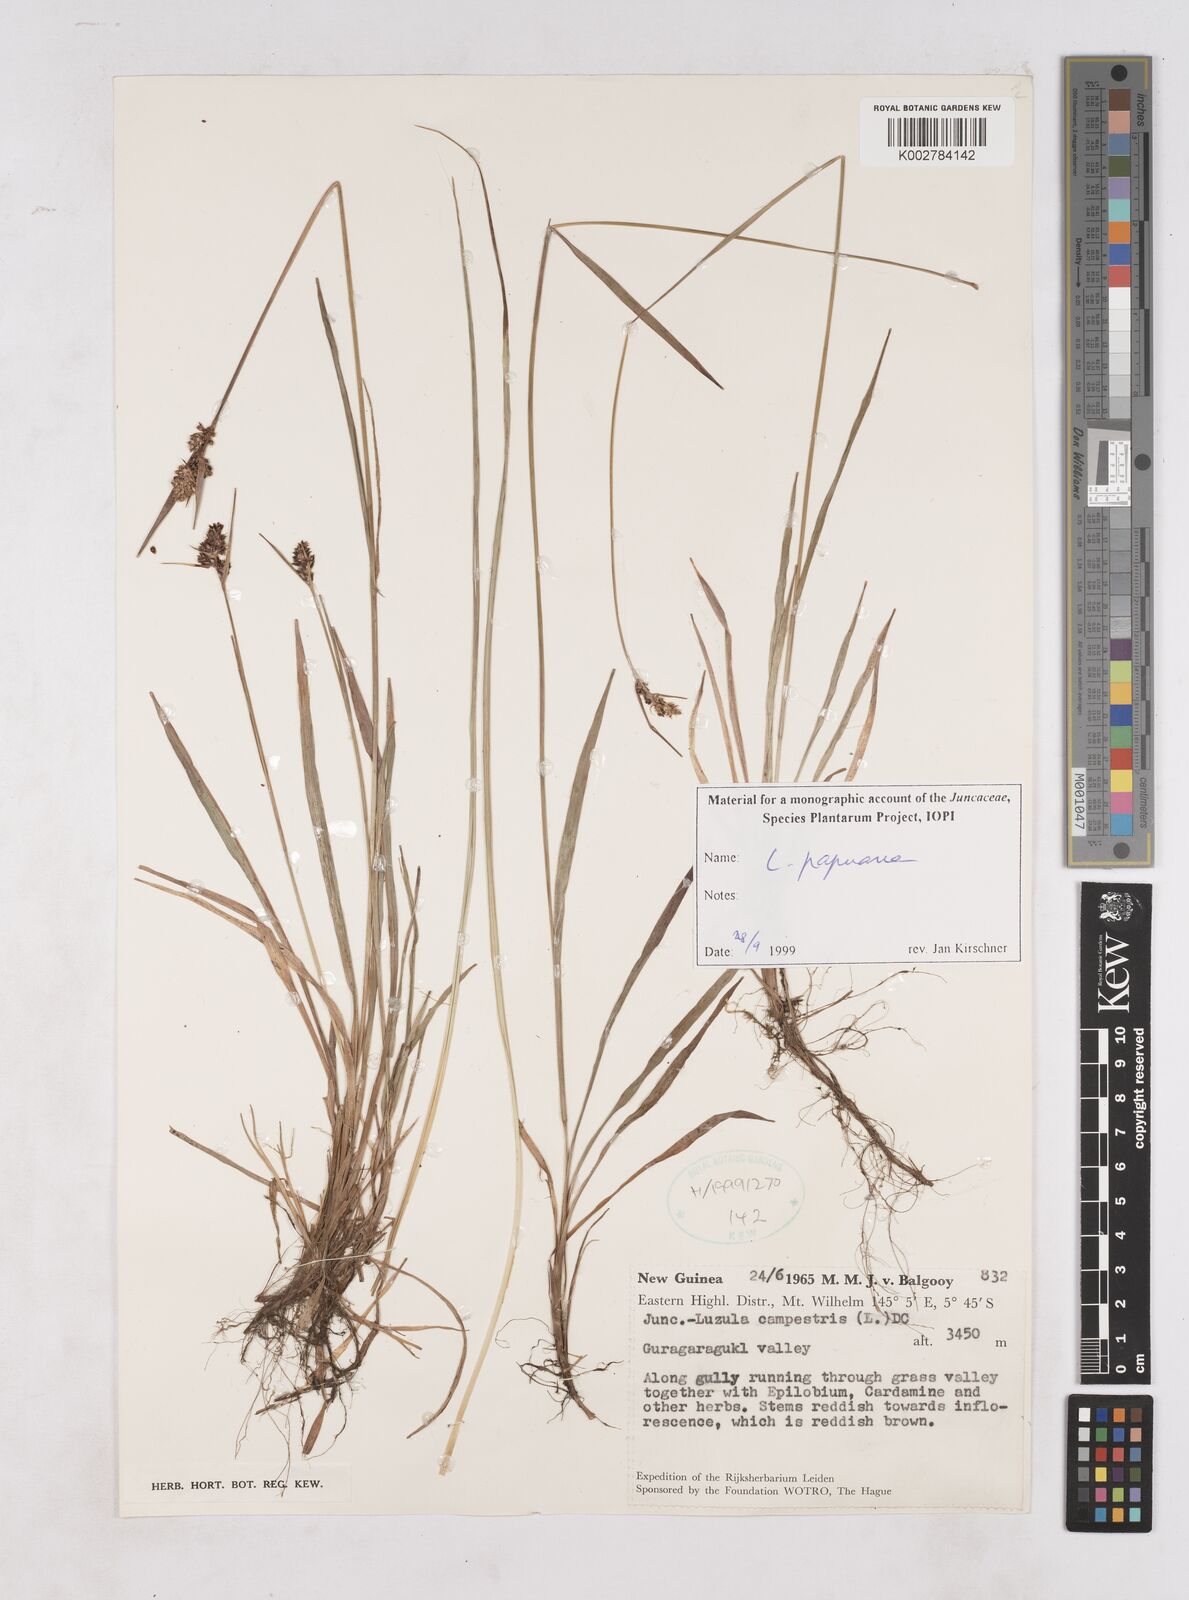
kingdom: Plantae
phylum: Tracheophyta
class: Liliopsida
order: Poales
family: Juncaceae
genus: Luzula
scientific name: Luzula papuana
